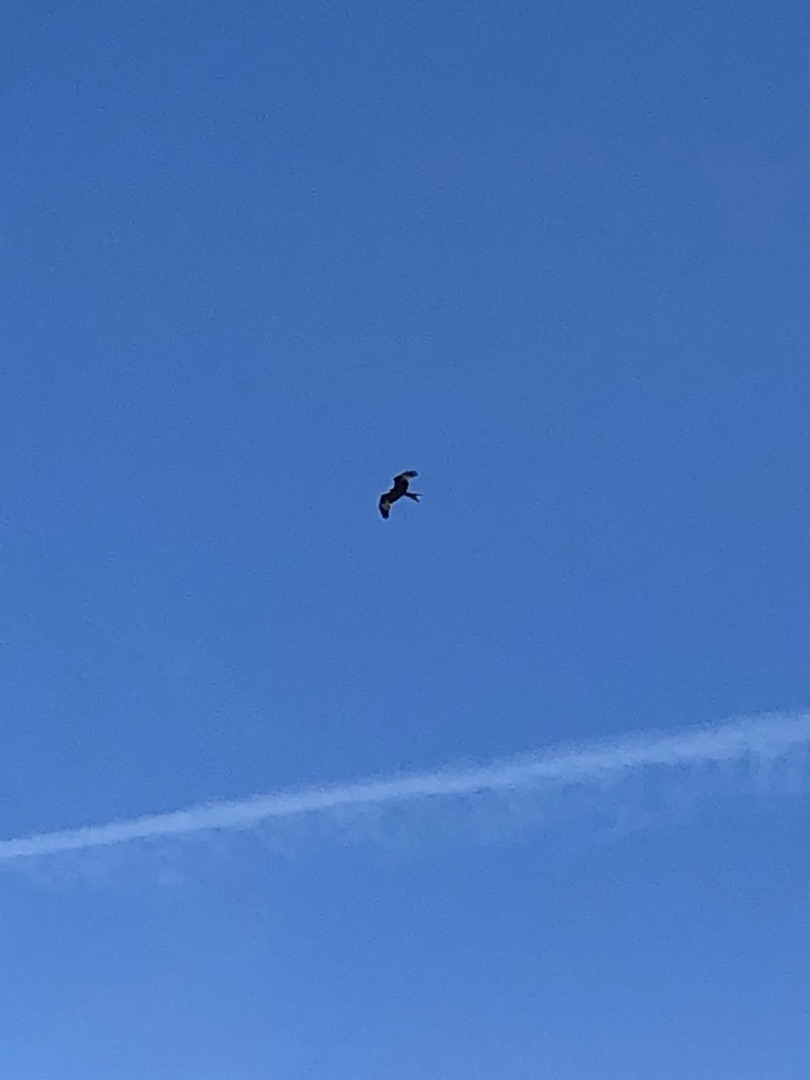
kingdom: Animalia
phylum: Chordata
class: Aves
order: Accipitriformes
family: Accipitridae
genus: Milvus
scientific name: Milvus milvus
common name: Rød glente
